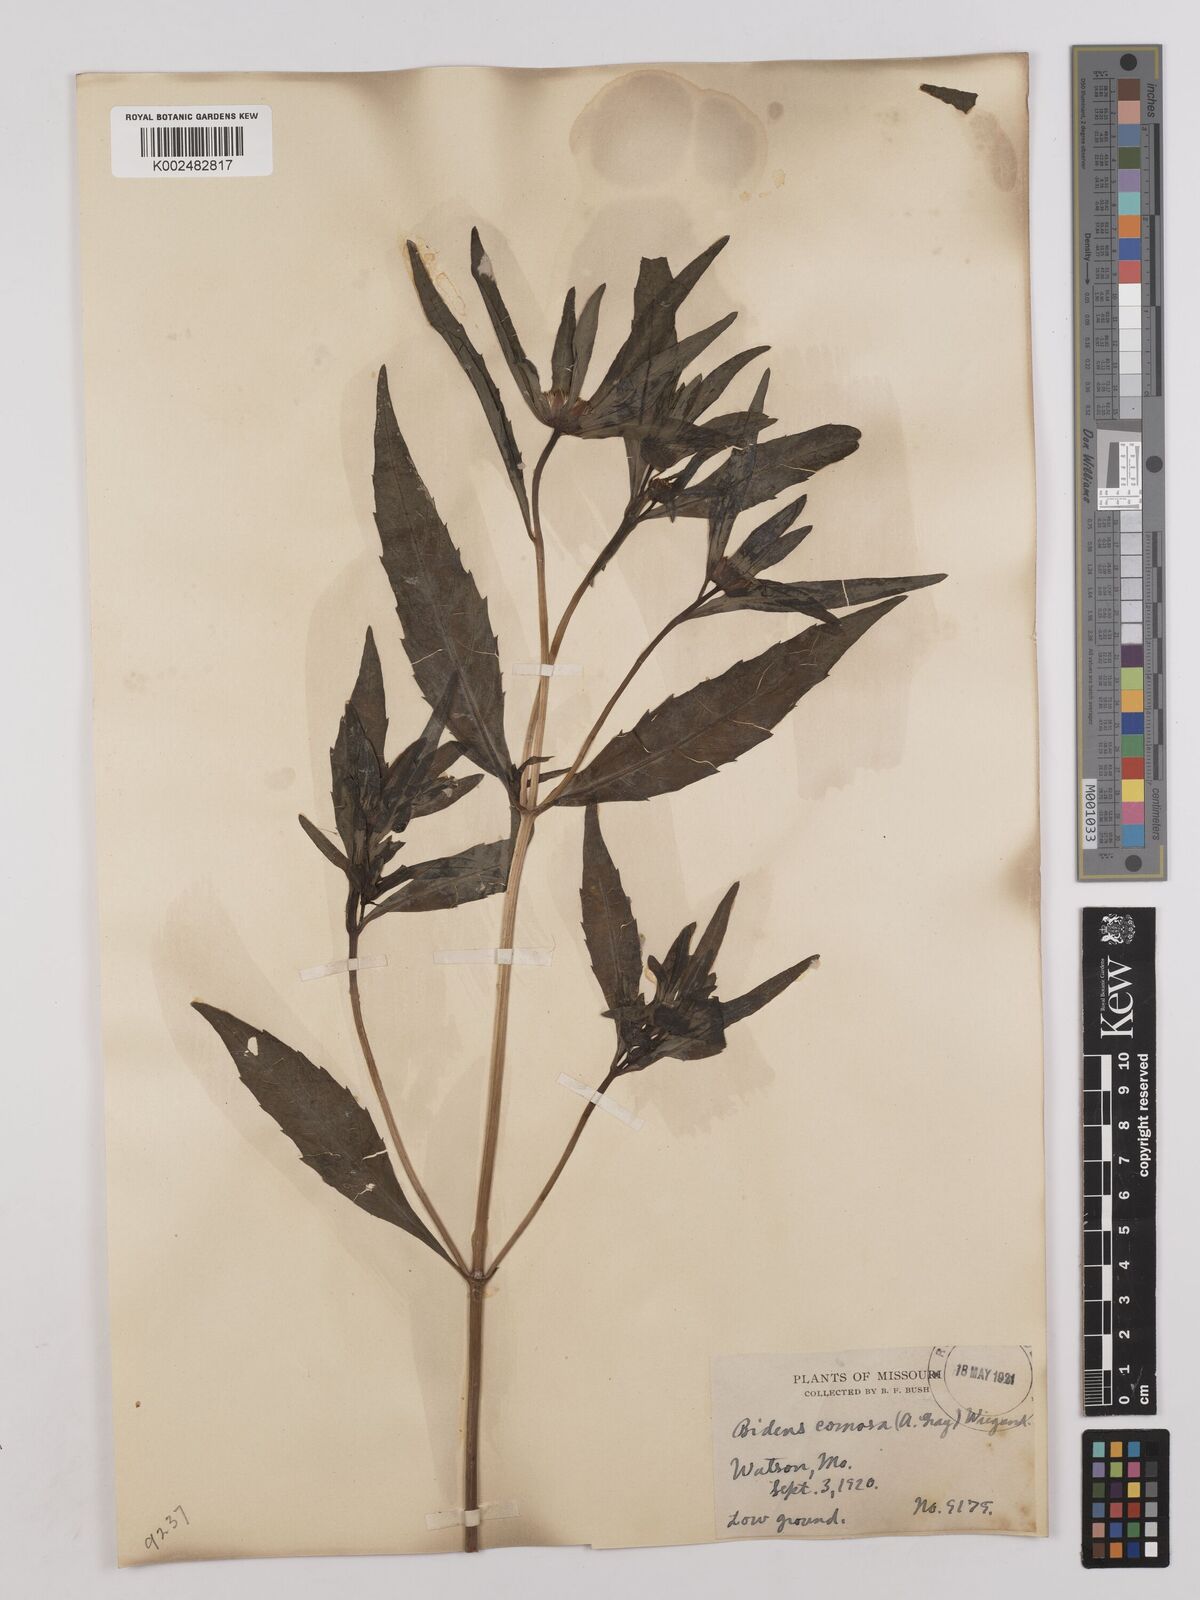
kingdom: Plantae
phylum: Tracheophyta
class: Magnoliopsida
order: Asterales
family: Asteraceae
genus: Bidens
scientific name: Bidens tripartita
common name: Trifid bur-marigold
